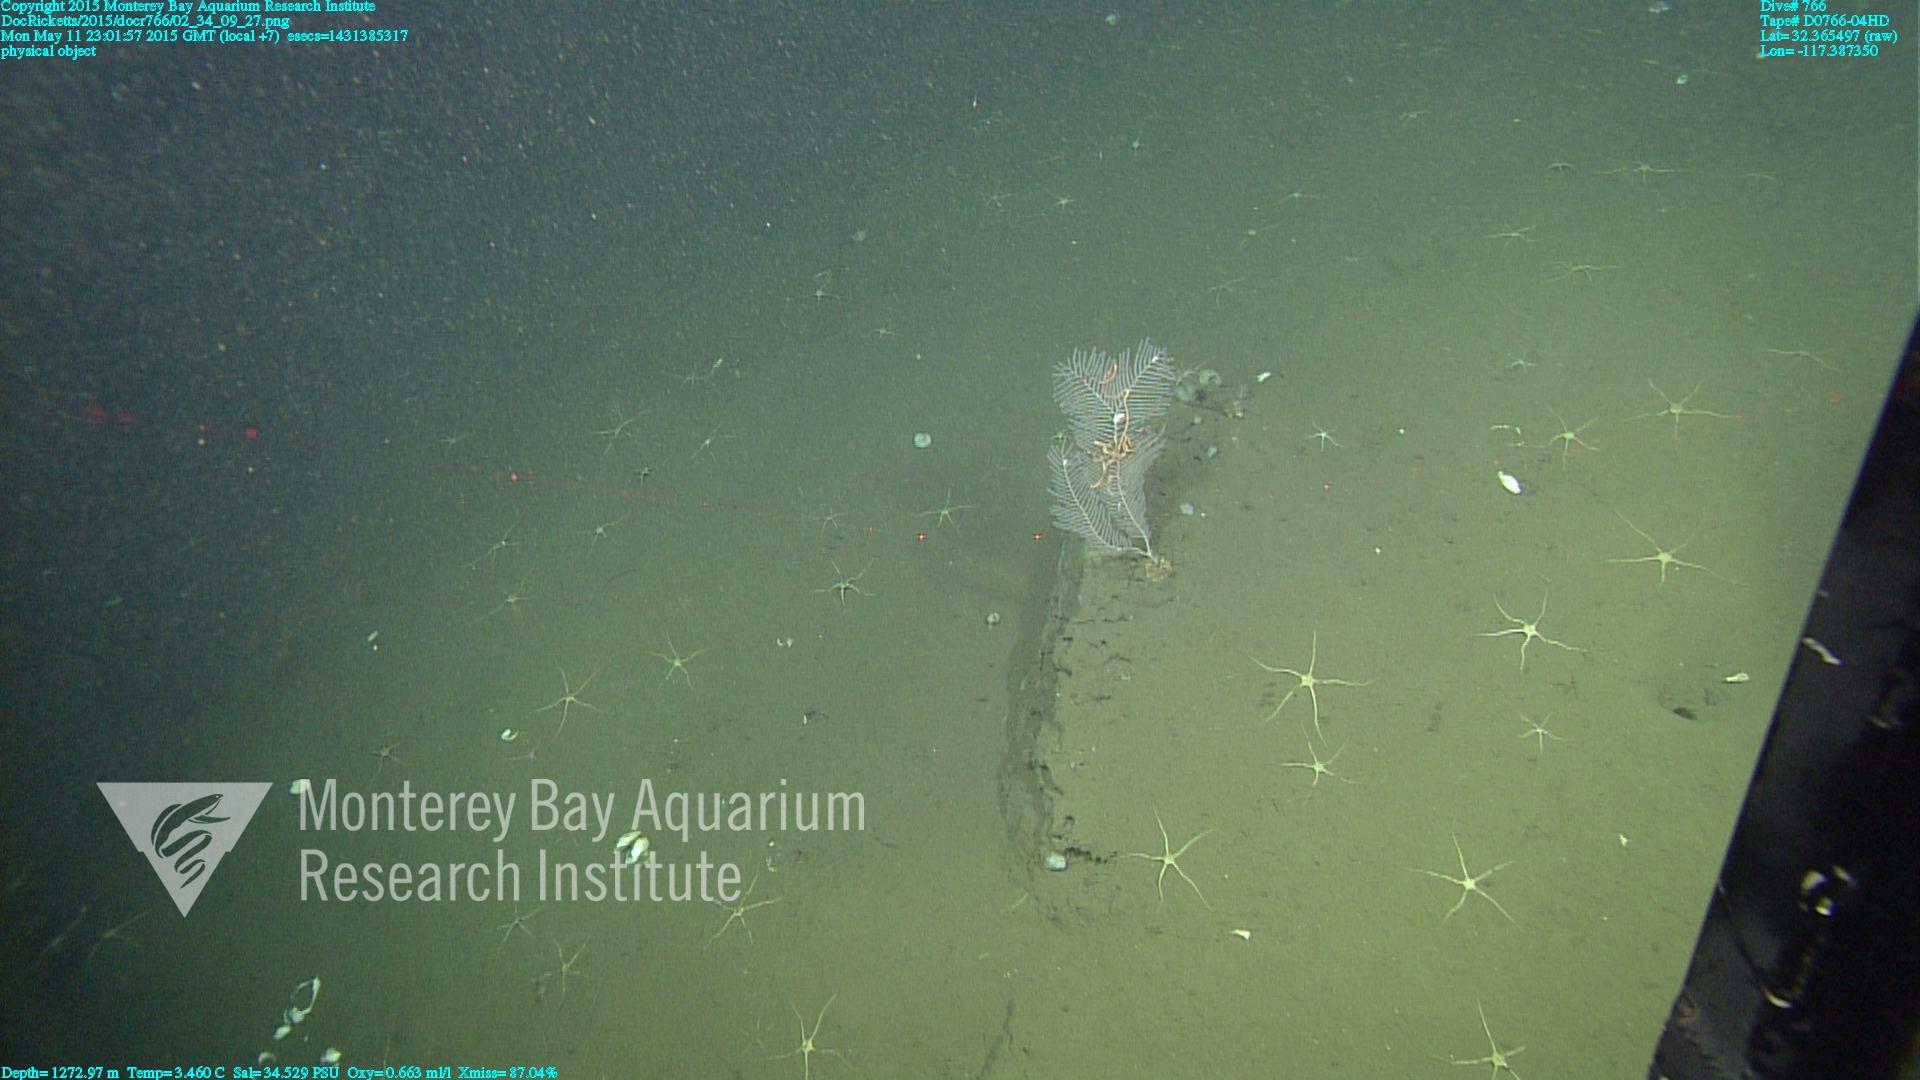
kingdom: Animalia
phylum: Cnidaria
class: Anthozoa
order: Scleralcyonacea
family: Primnoidae
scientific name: Primnoidae
